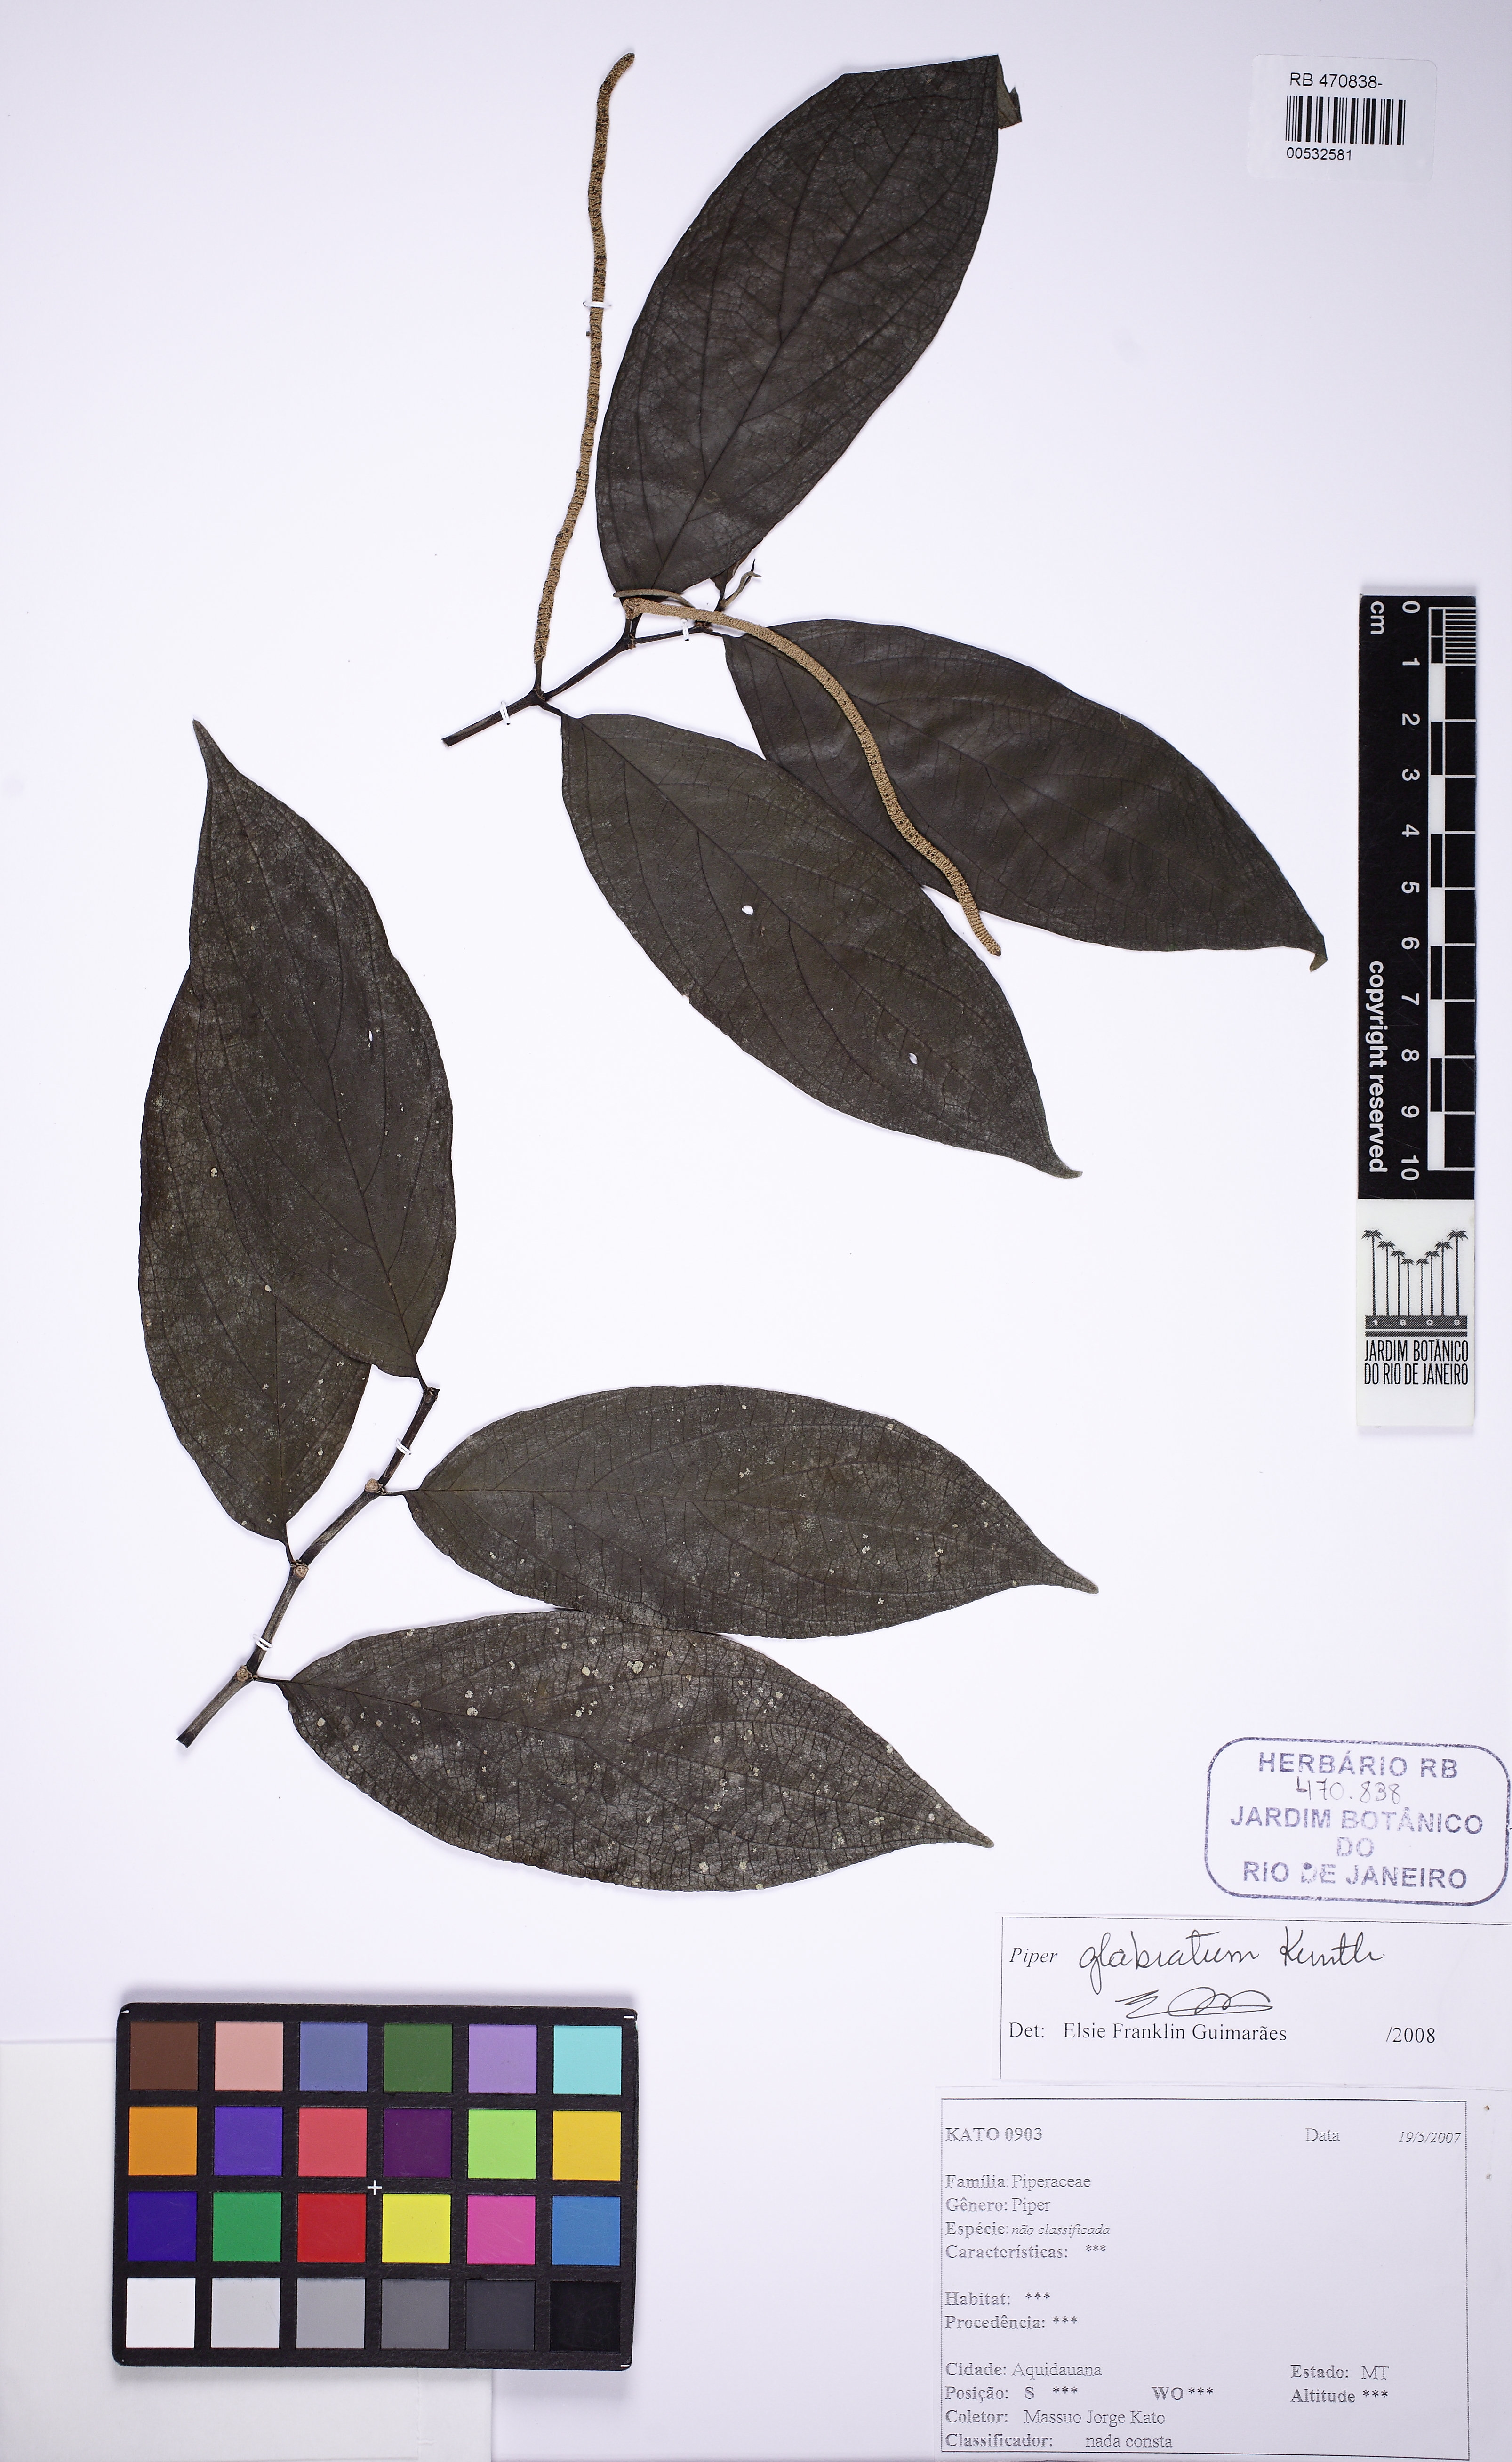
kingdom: Plantae
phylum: Tracheophyta
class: Magnoliopsida
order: Piperales
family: Piperaceae
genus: Piper
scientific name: Piper glabratum
